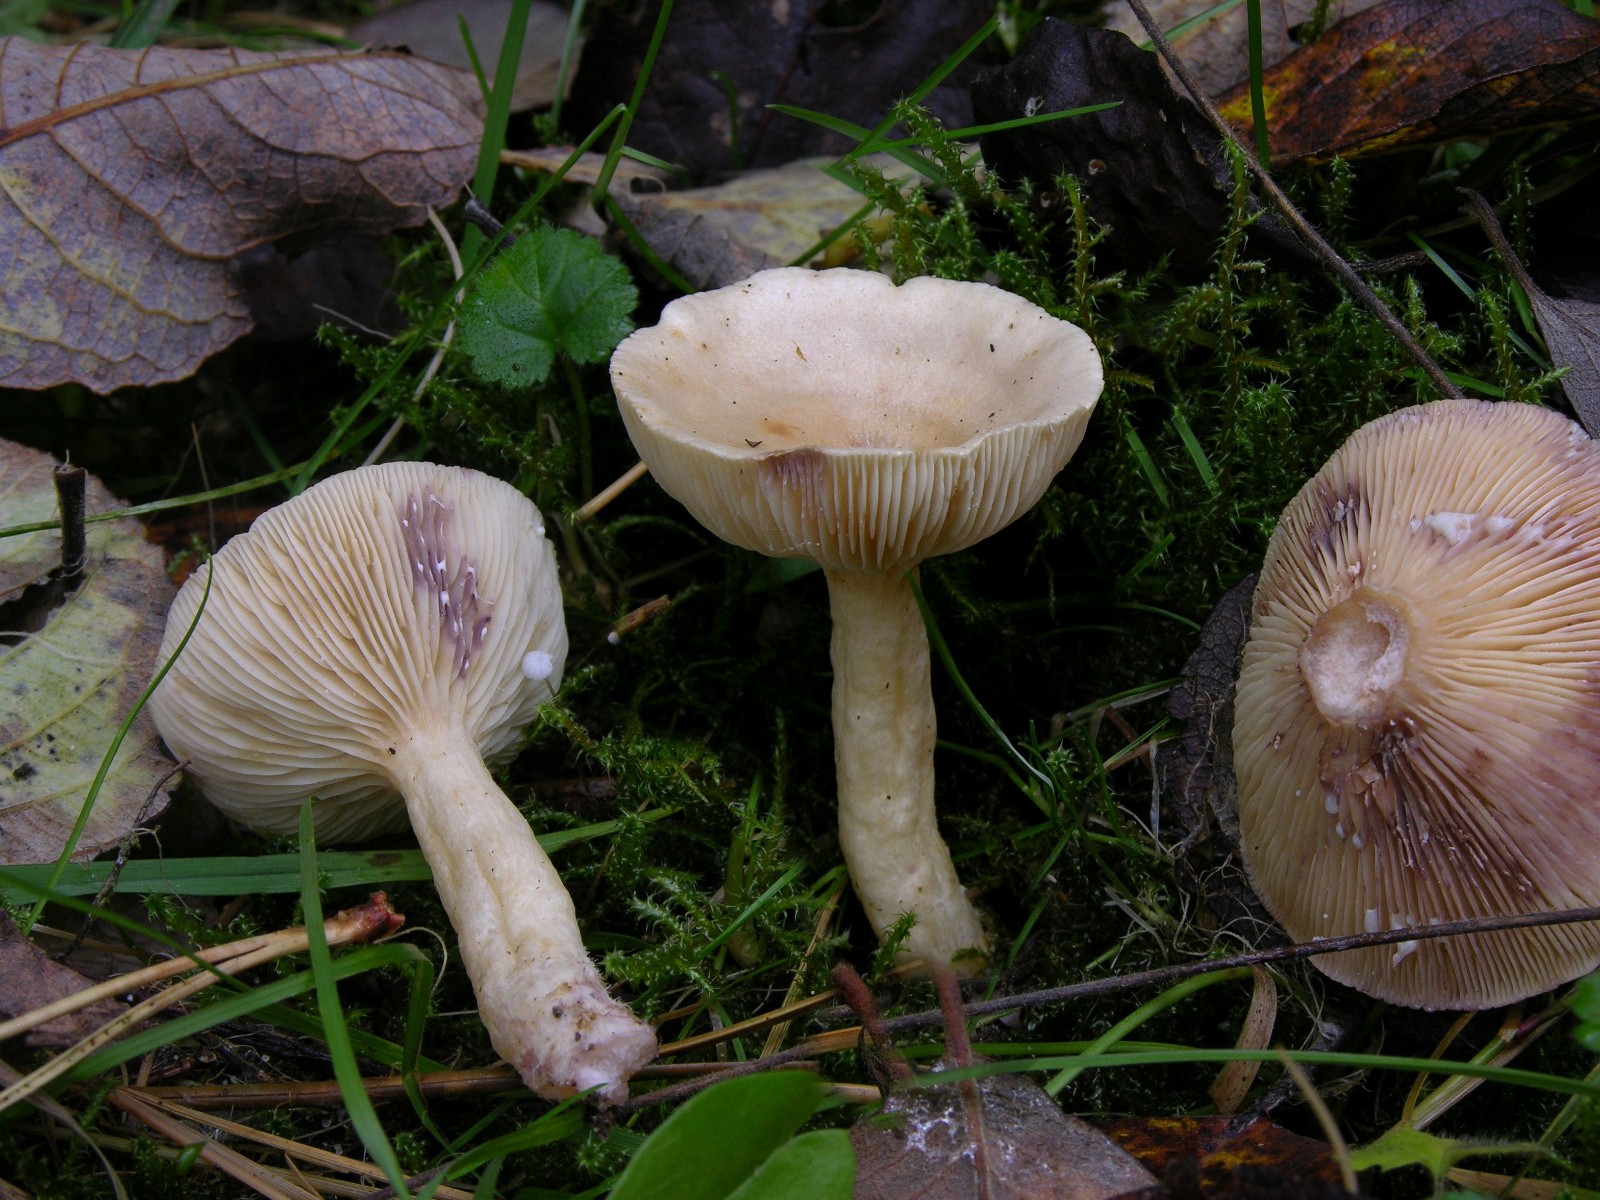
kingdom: Fungi
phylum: Basidiomycota
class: Agaricomycetes
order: Russulales
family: Russulaceae
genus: Lactarius
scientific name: Lactarius aspideus
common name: pile-mælkehat
